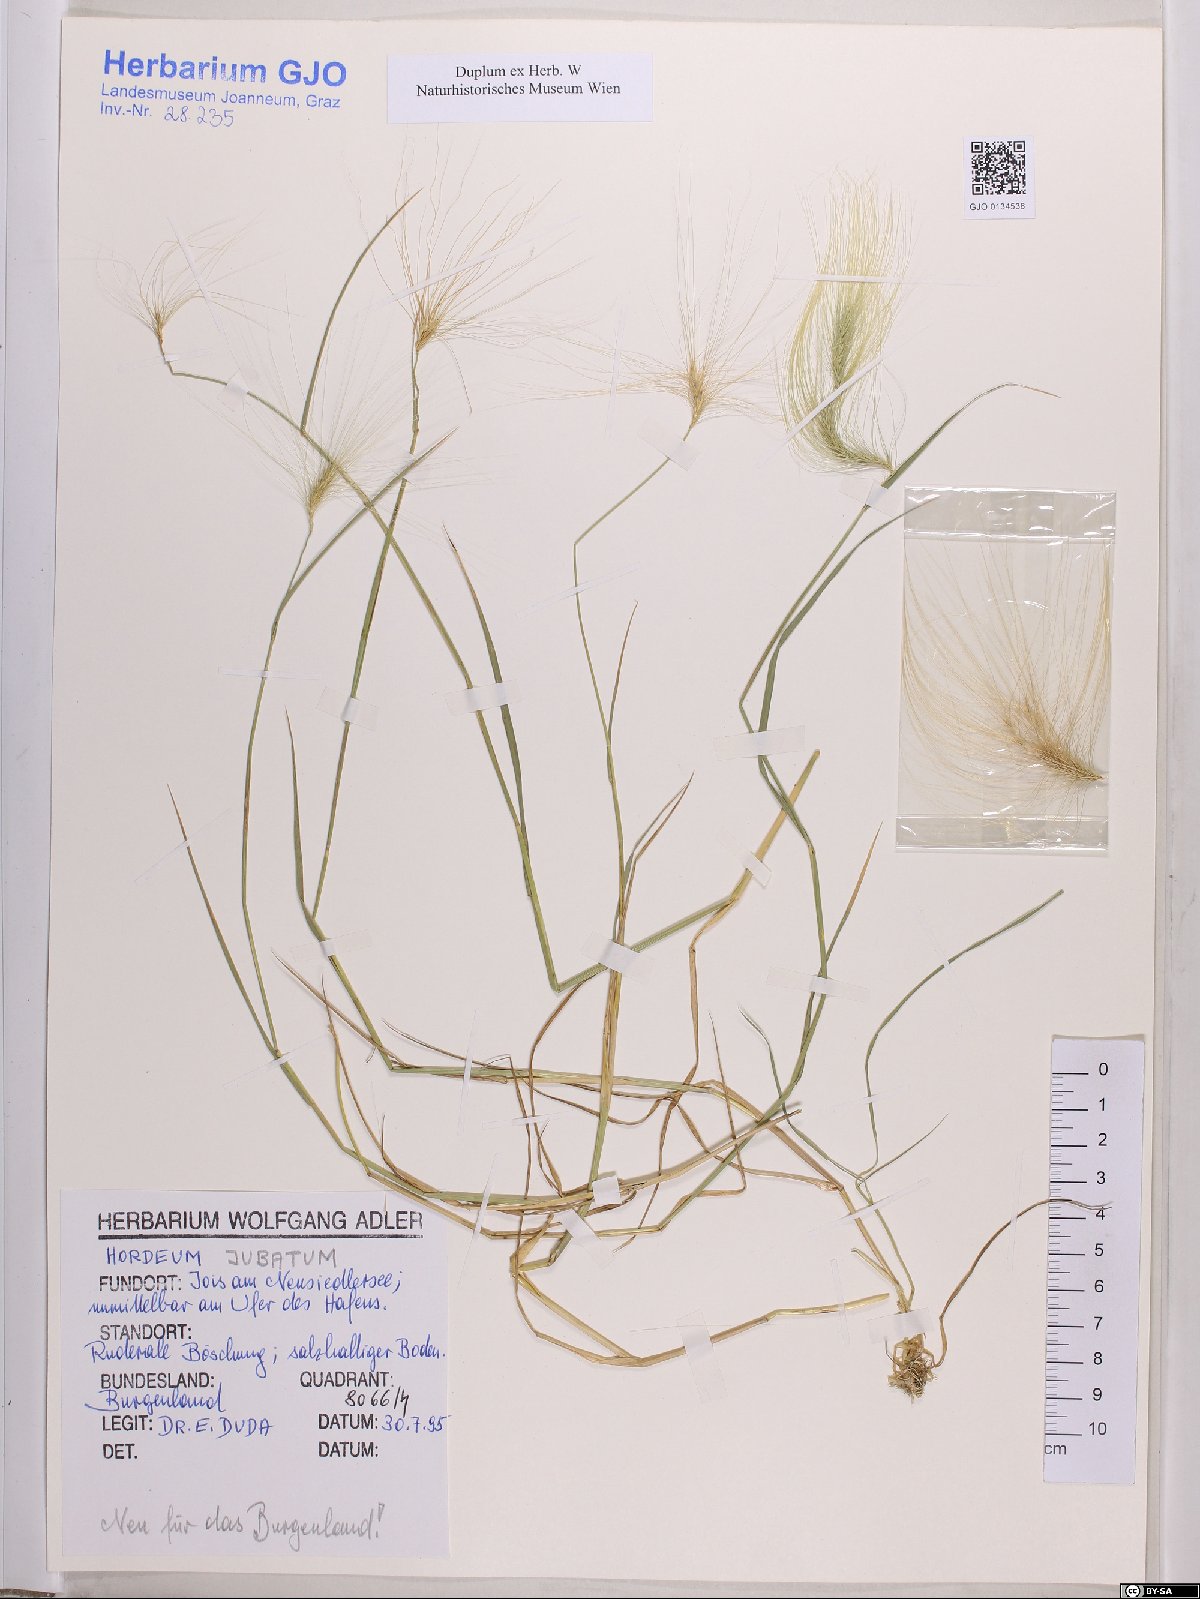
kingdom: Plantae
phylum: Tracheophyta
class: Liliopsida
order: Poales
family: Poaceae
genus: Hordeum
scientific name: Hordeum jubatum
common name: Foxtail barley
